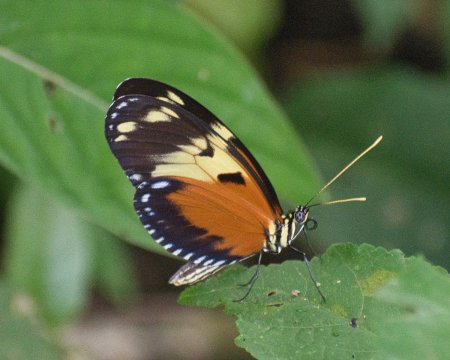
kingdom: Animalia
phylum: Arthropoda
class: Insecta
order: Lepidoptera
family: Nymphalidae
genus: Heliconius
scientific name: Heliconius ismenius
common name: Tiger-striped Longwing
